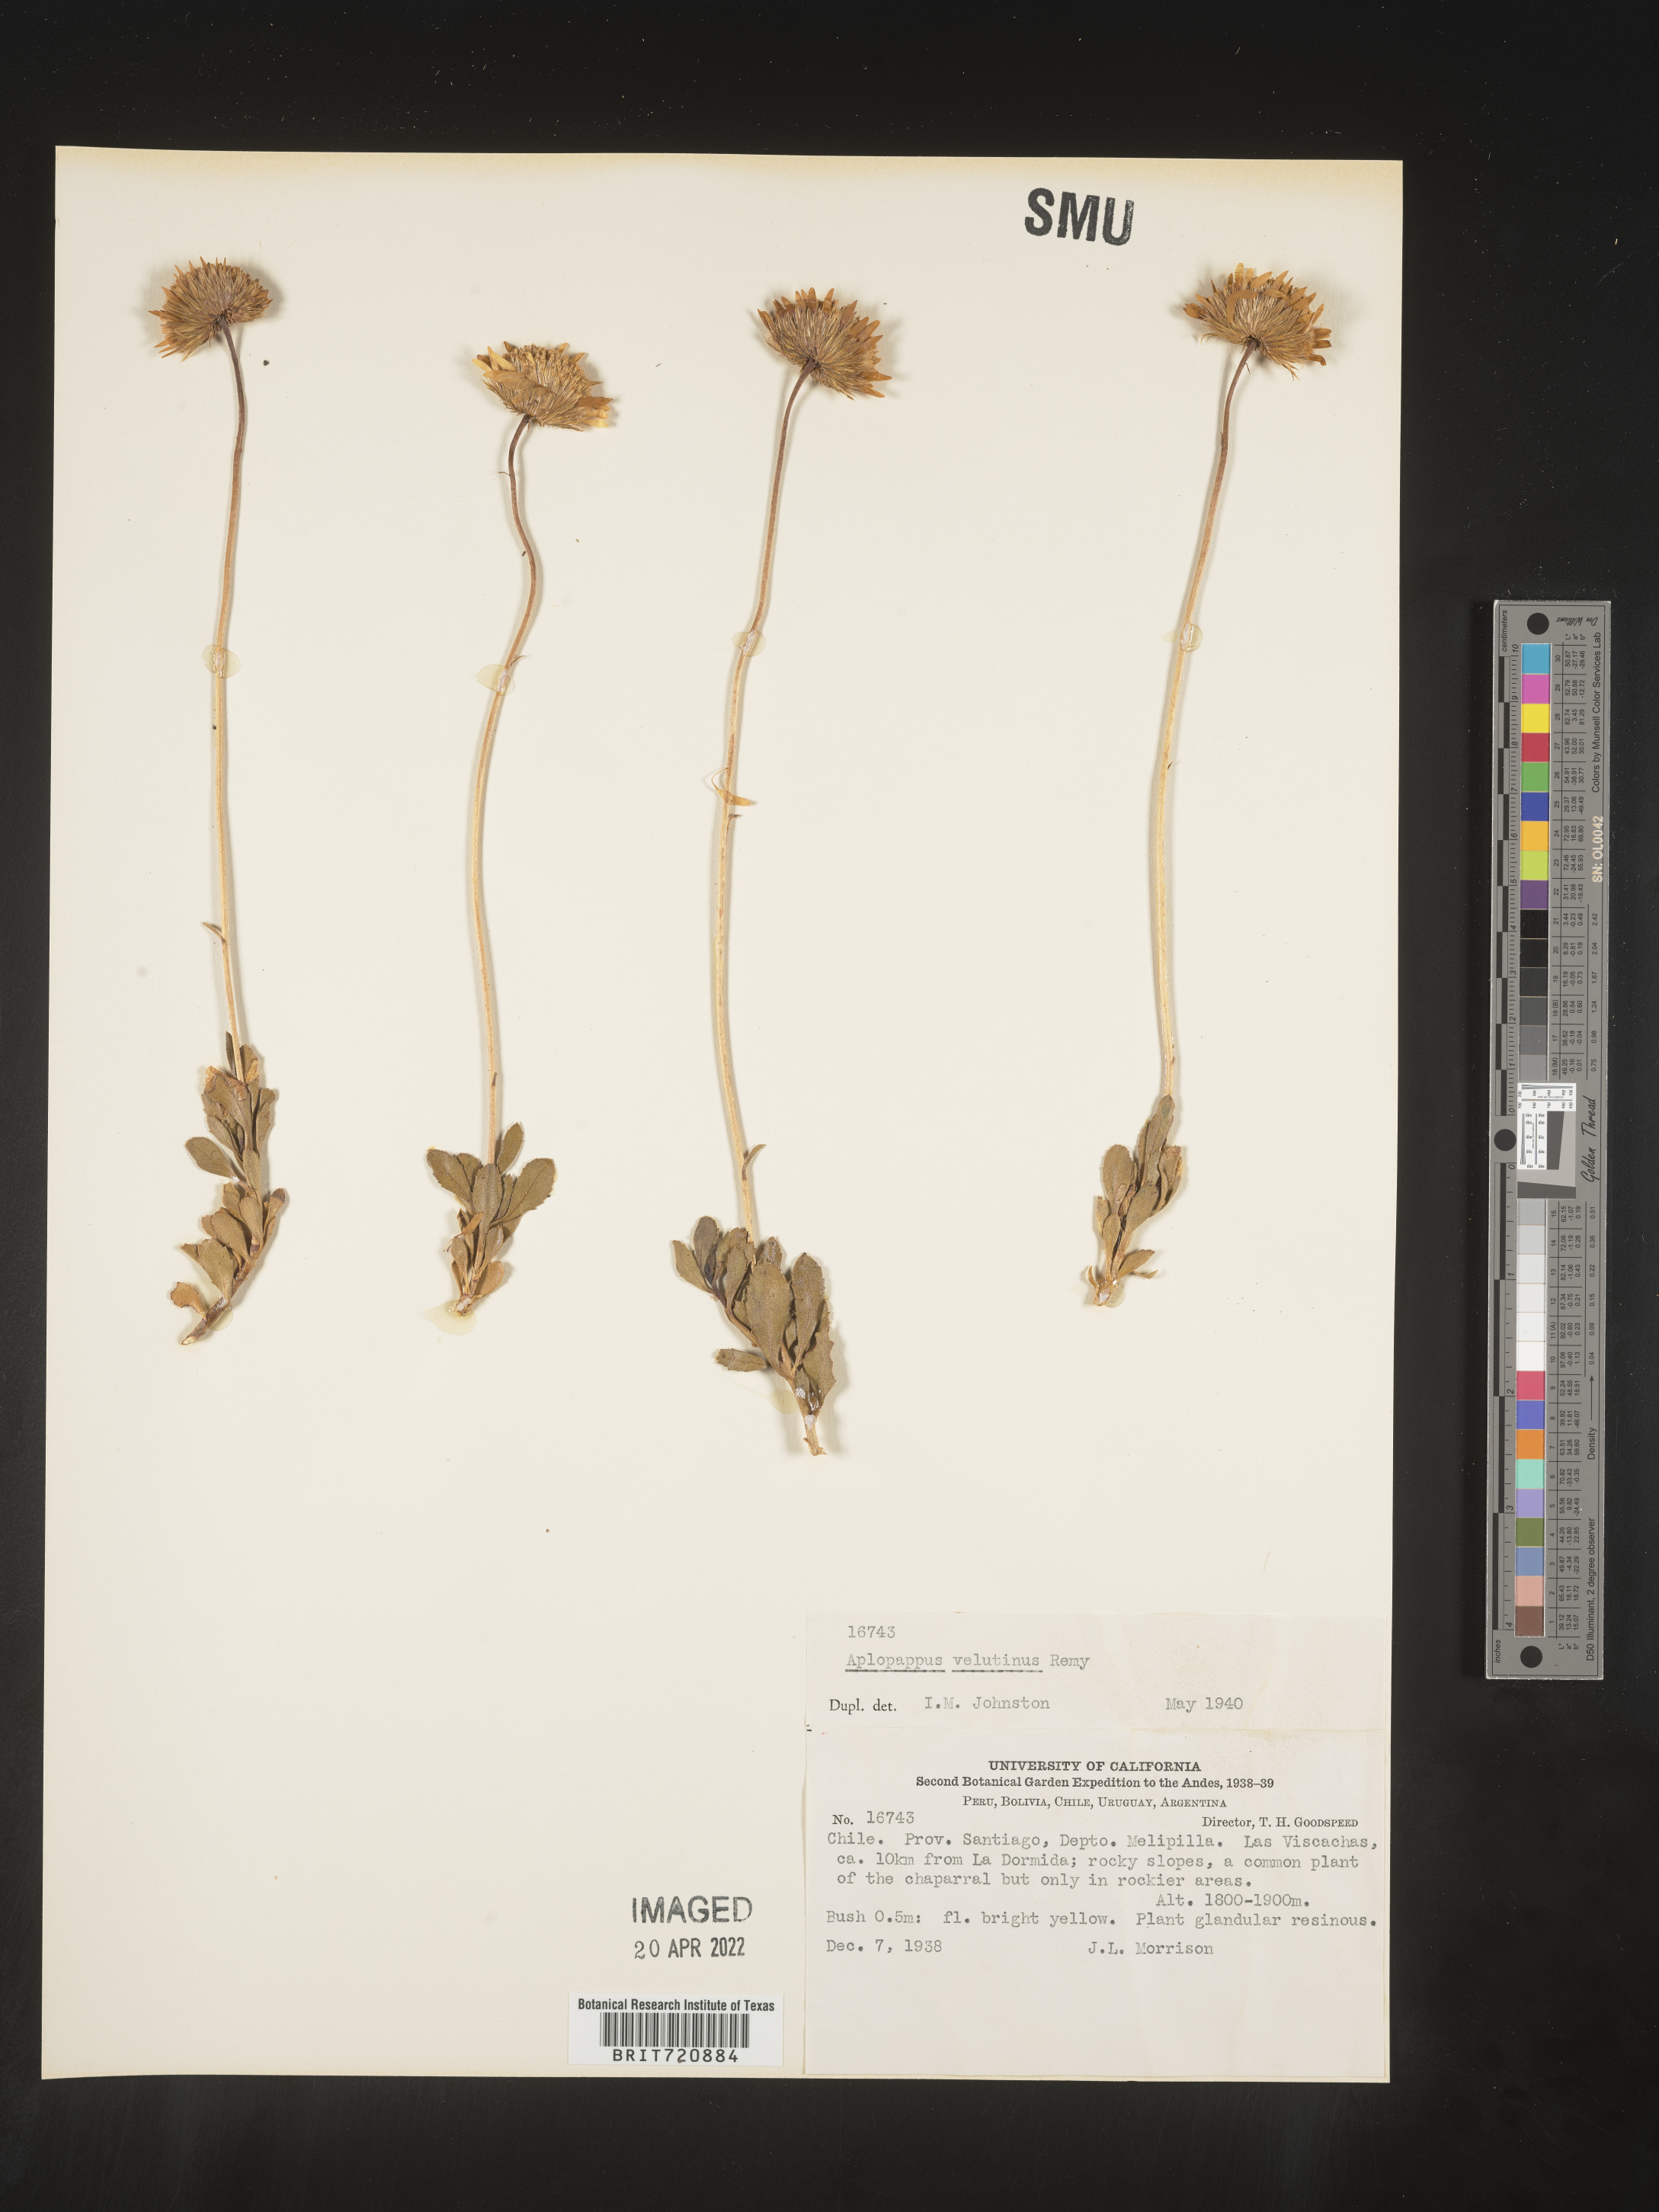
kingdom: Plantae
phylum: Tracheophyta
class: Magnoliopsida
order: Asterales
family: Asteraceae
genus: Haplopappus
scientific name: Haplopappus
